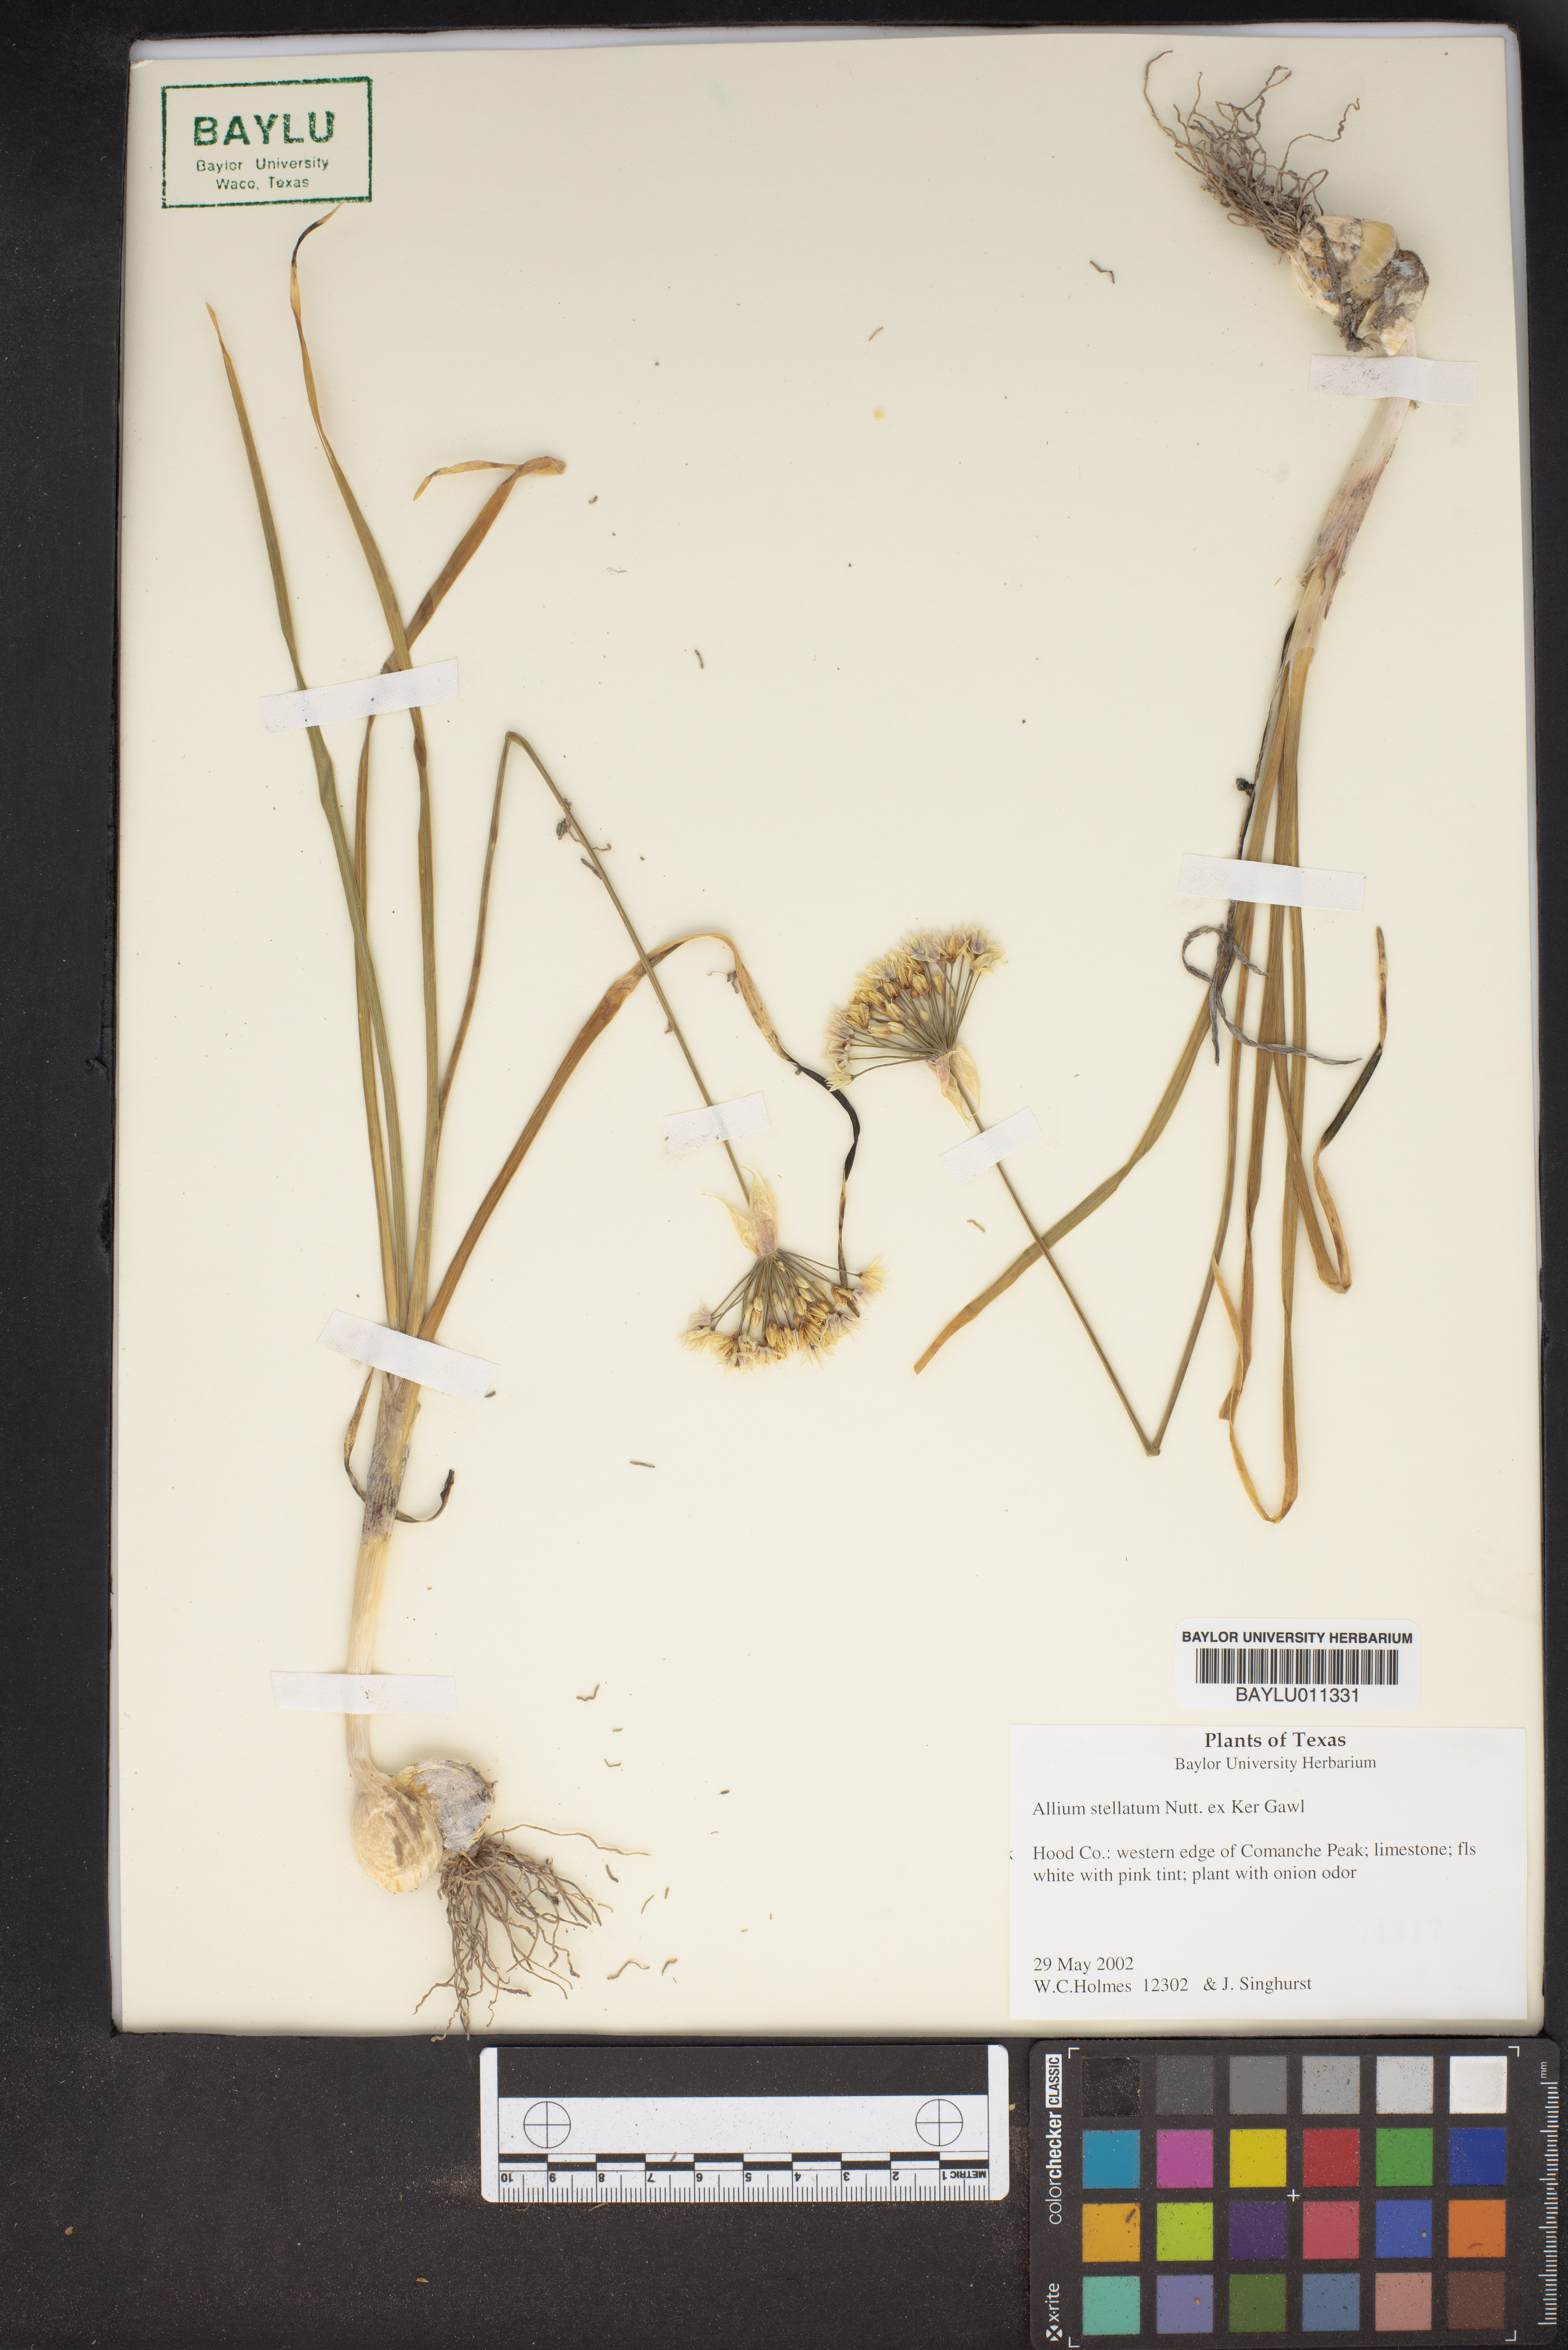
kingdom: Plantae
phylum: Tracheophyta
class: Liliopsida
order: Asparagales
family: Amaryllidaceae
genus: Allium
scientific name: Allium stellatum
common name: Autumn onion
